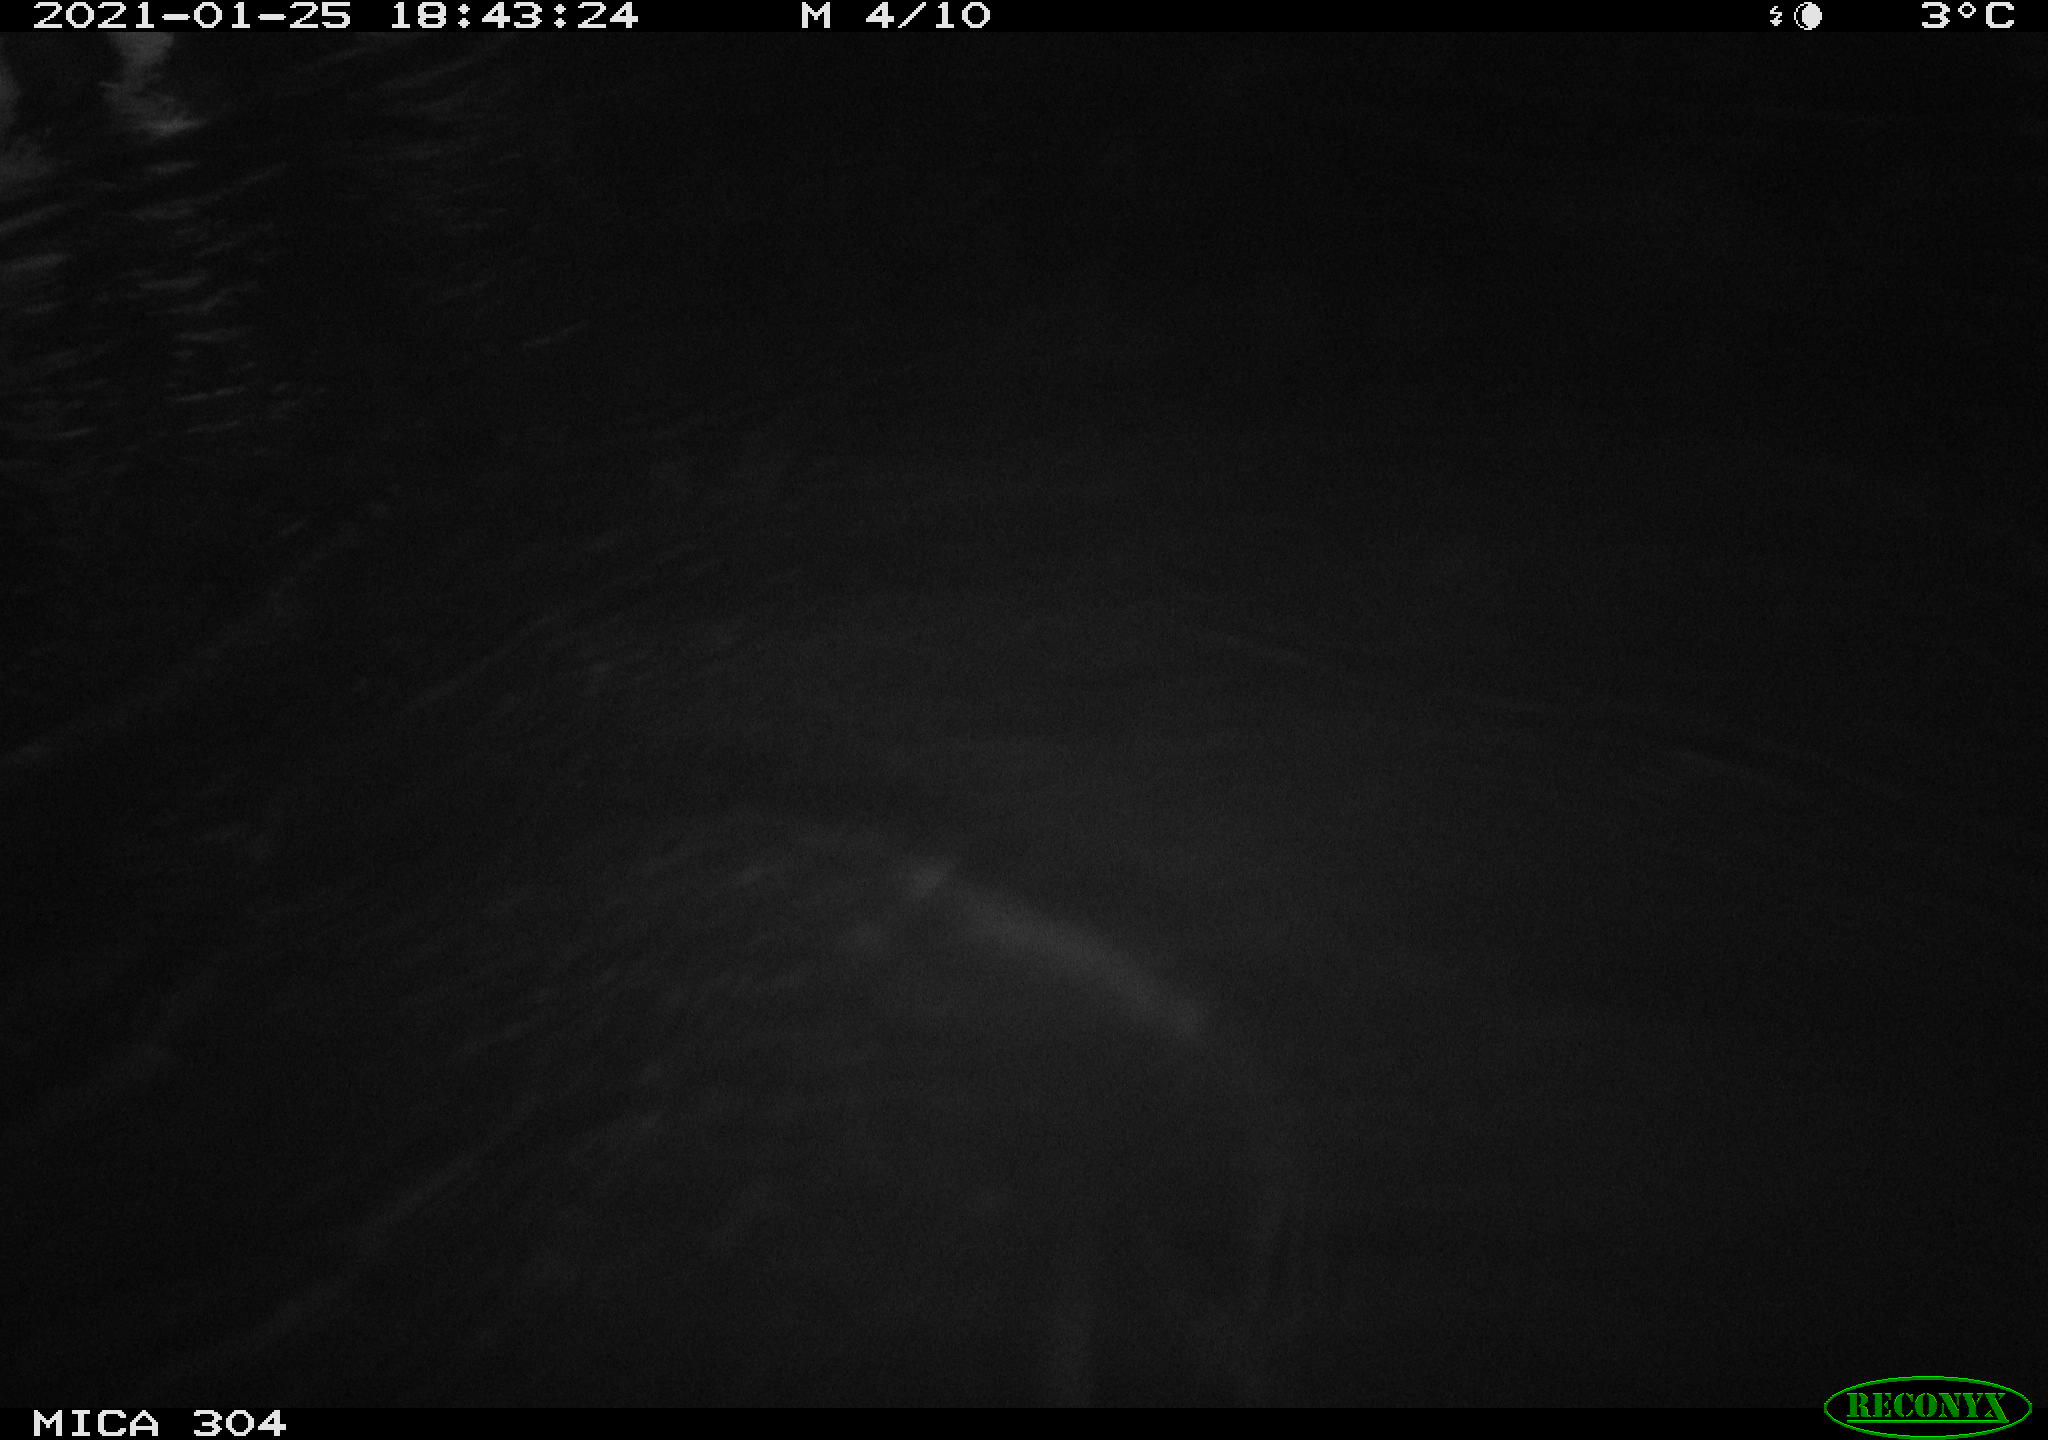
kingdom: Animalia
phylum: Chordata
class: Mammalia
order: Rodentia
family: Cricetidae
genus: Ondatra
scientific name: Ondatra zibethicus
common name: Muskrat
